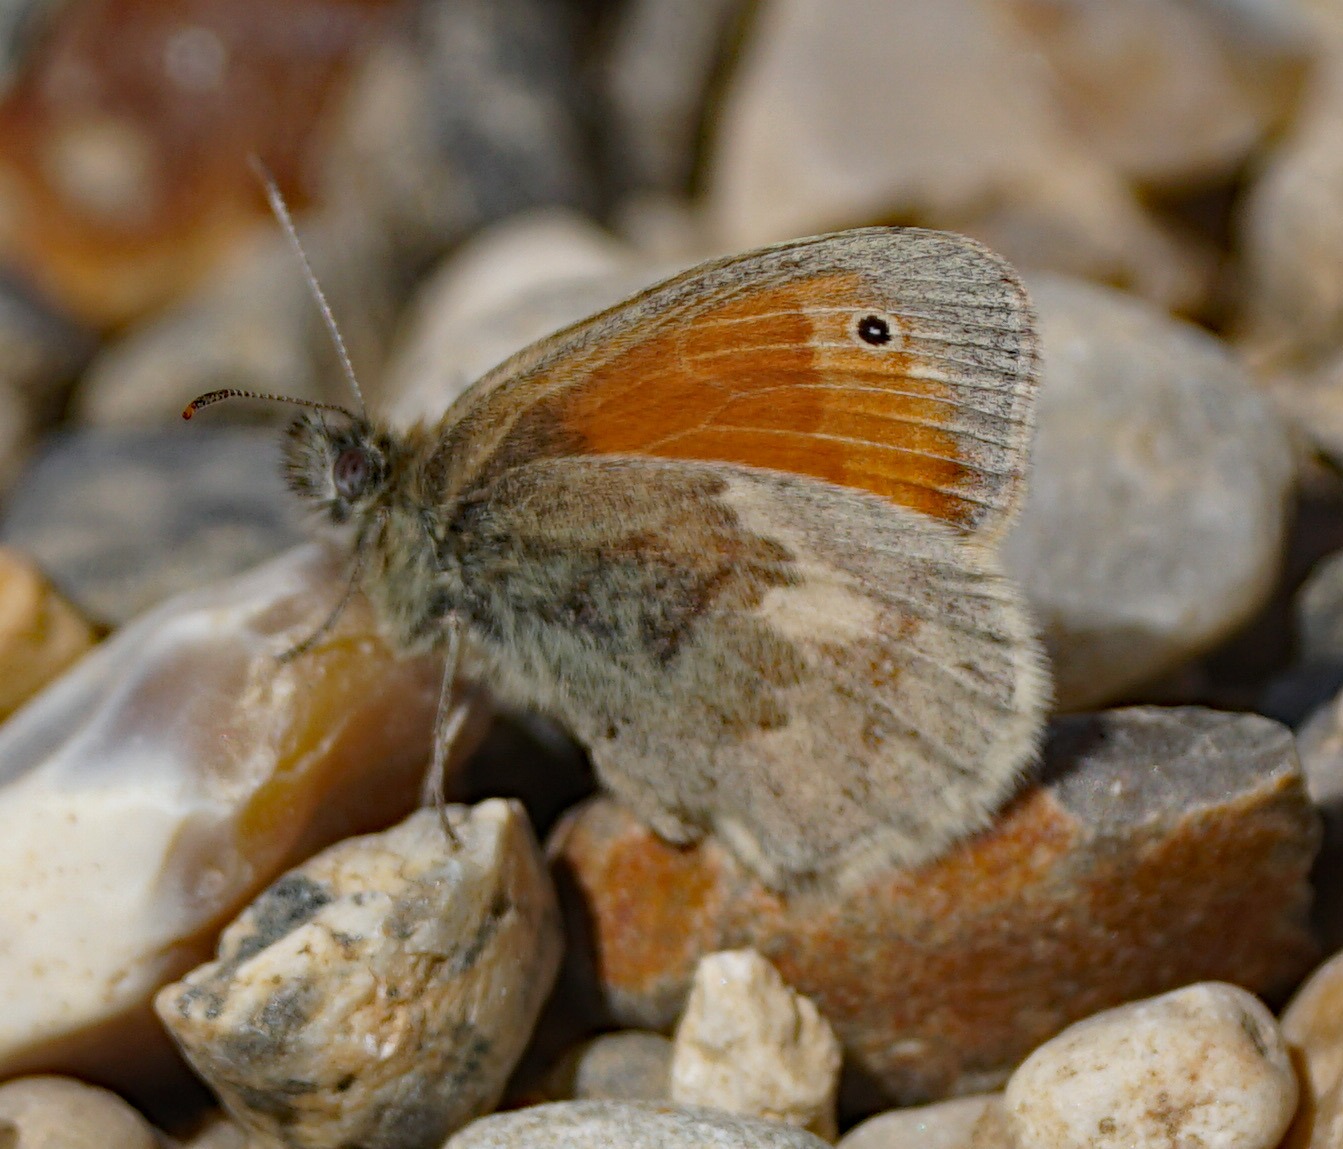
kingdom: Animalia
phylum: Arthropoda
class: Insecta
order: Lepidoptera
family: Nymphalidae
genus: Coenonympha
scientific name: Coenonympha pamphilus
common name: Okkergul randøje
